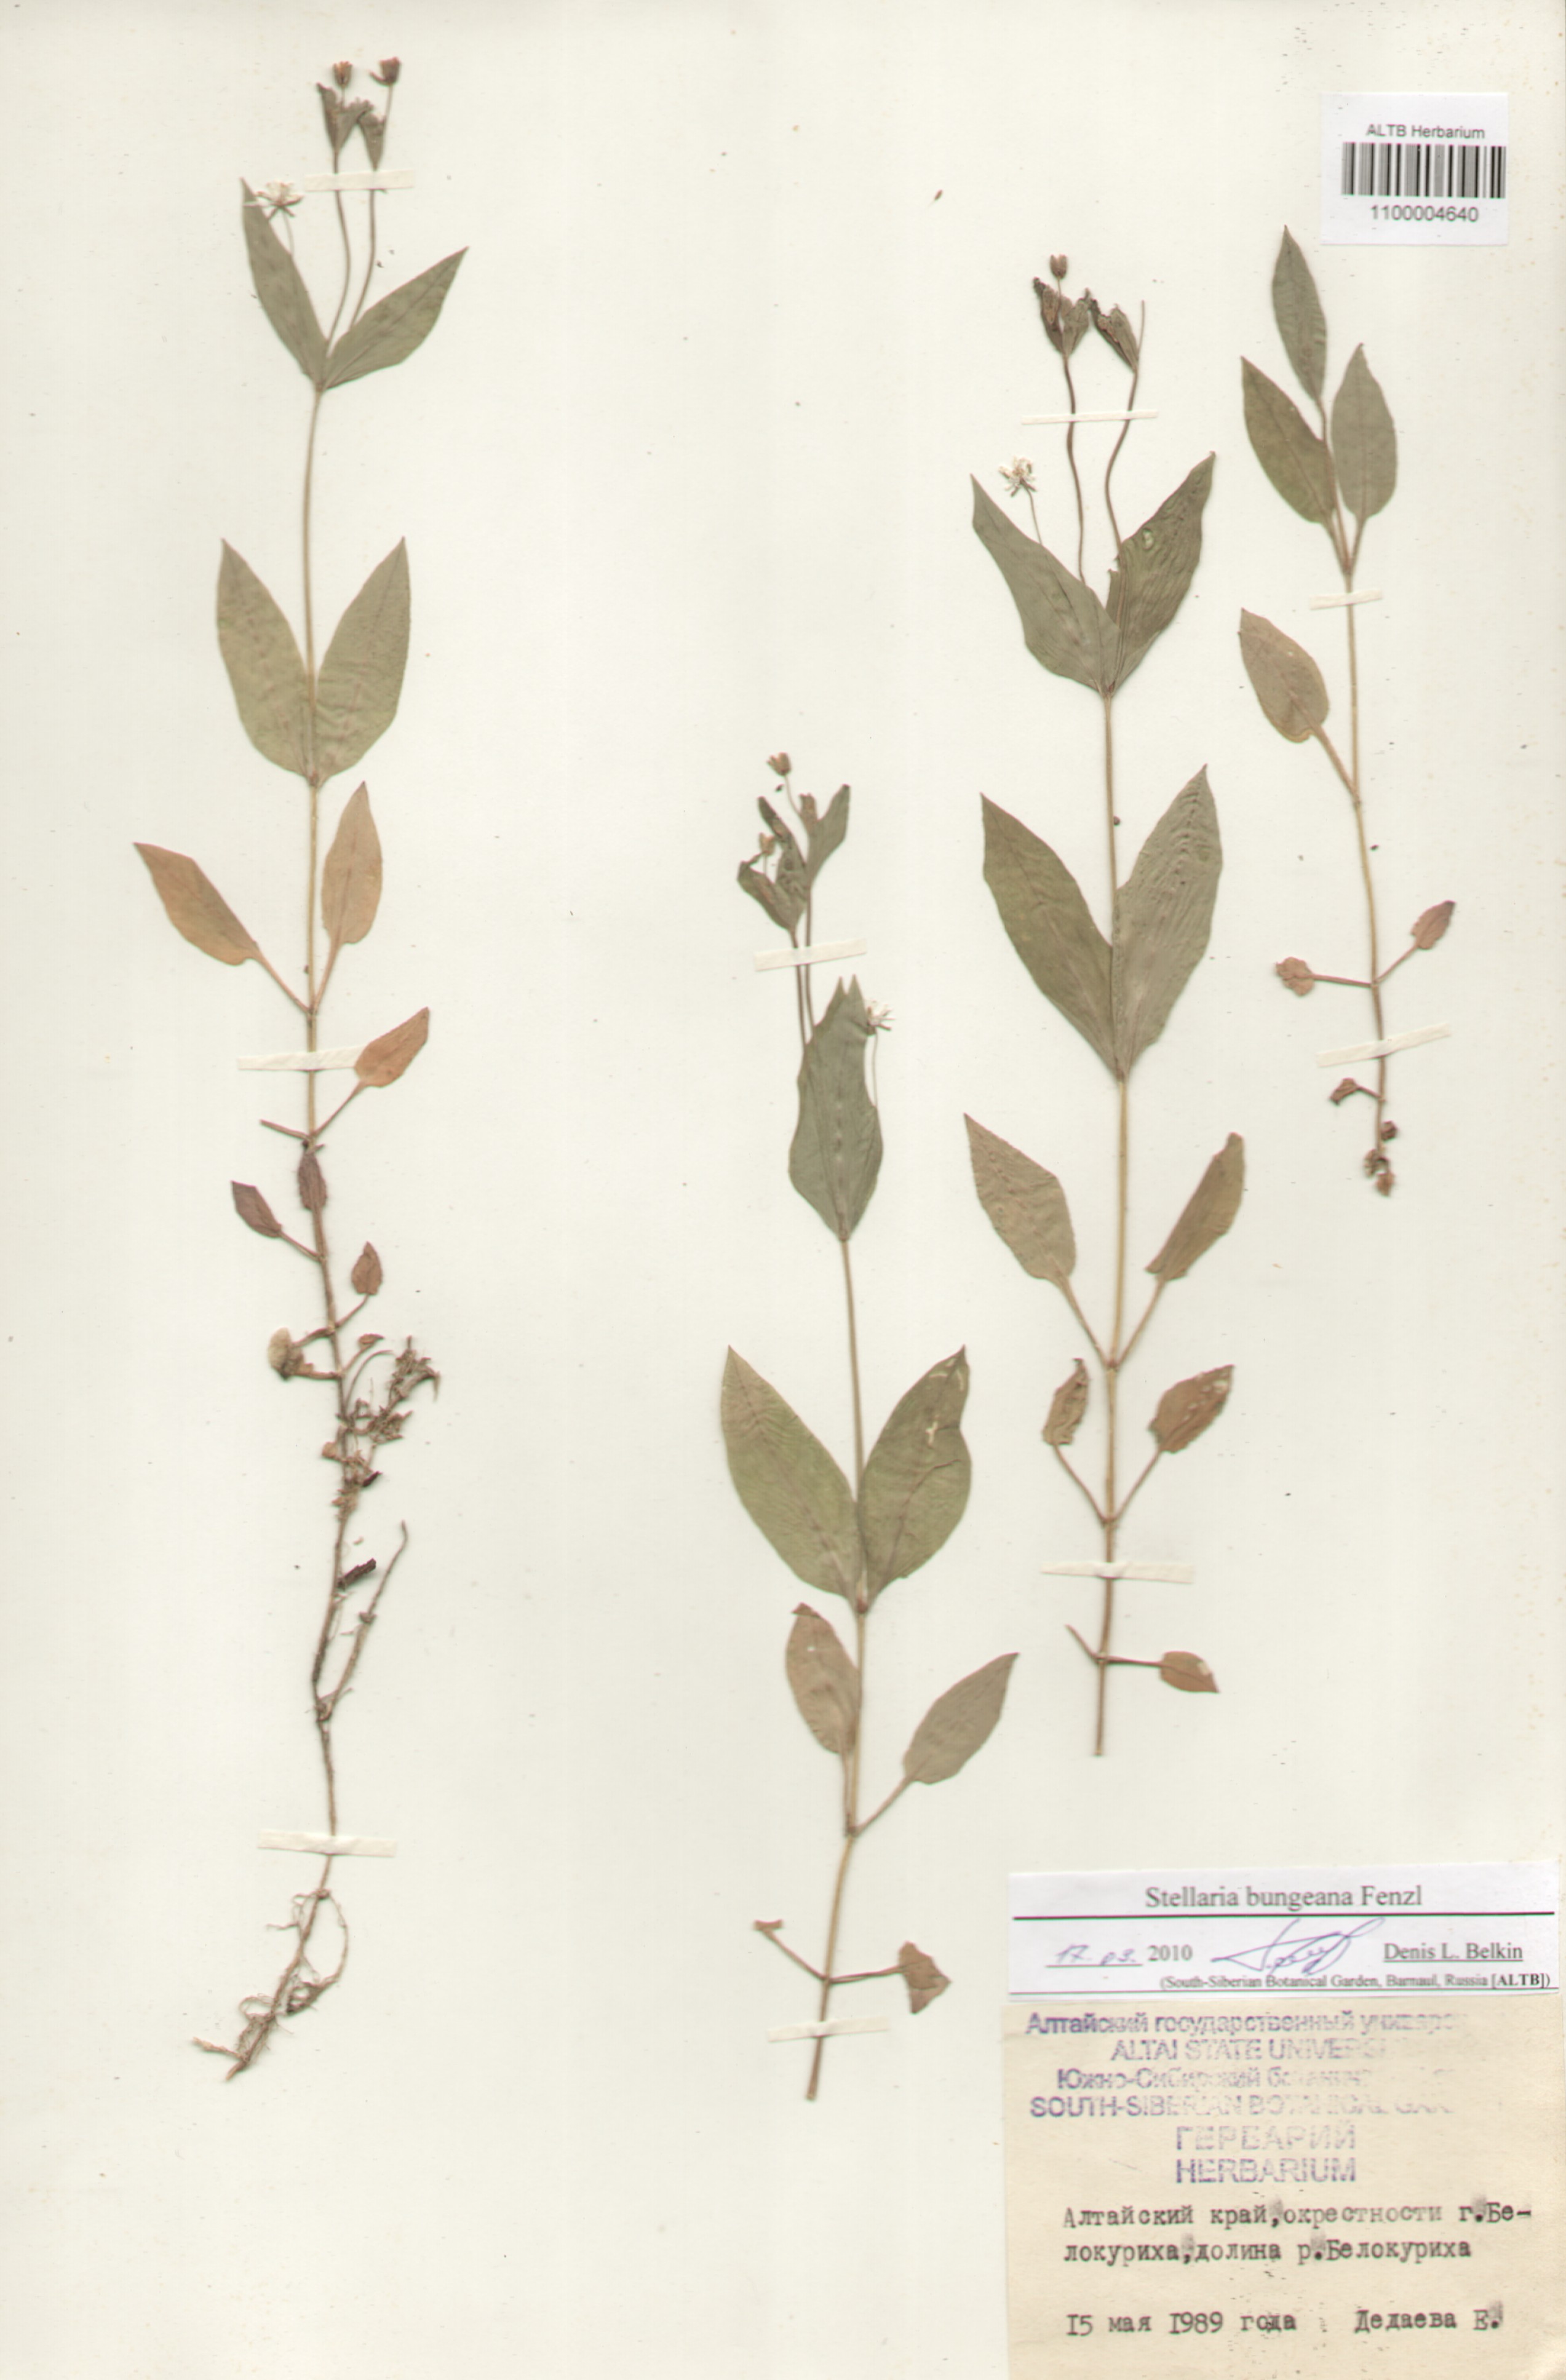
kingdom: Plantae
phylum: Tracheophyta
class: Magnoliopsida
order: Caryophyllales
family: Caryophyllaceae
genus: Stellaria
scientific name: Stellaria bungeana
